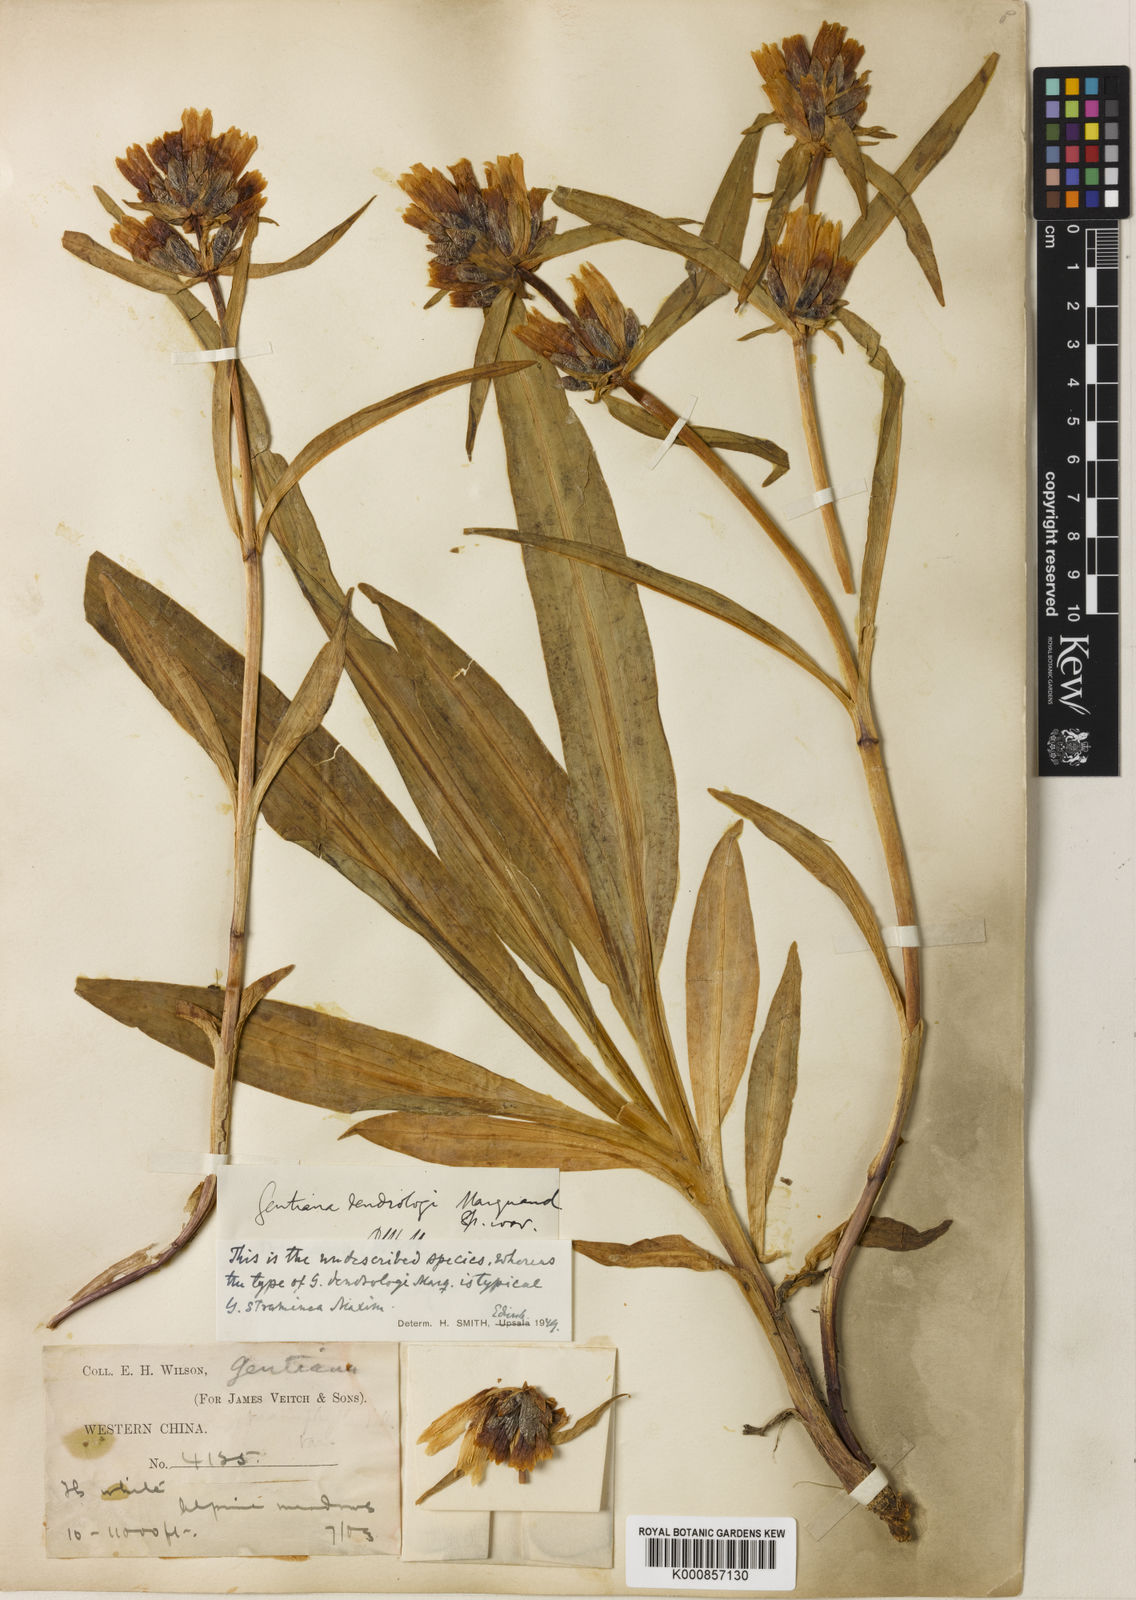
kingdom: Plantae
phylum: Tracheophyta
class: Magnoliopsida
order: Gentianales
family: Gentianaceae
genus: Gentiana
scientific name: Gentiana dendrologi
